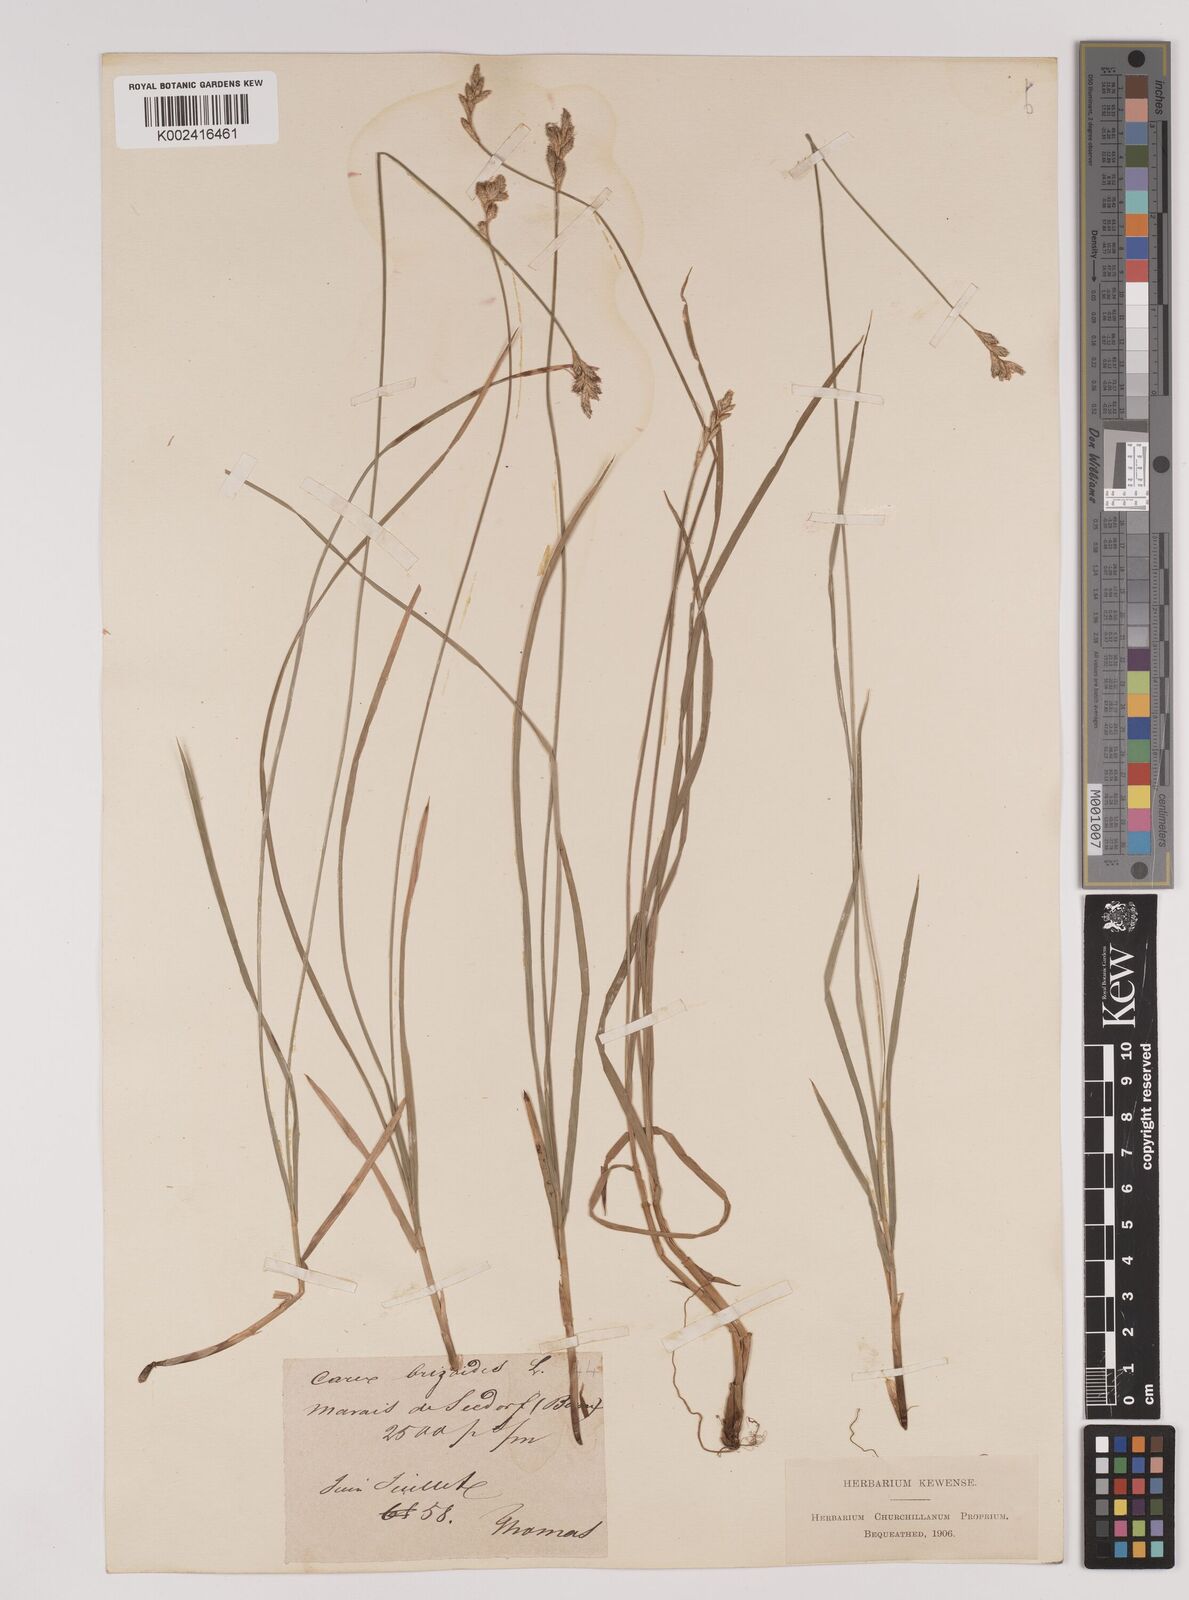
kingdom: Plantae
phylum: Tracheophyta
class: Liliopsida
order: Poales
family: Cyperaceae
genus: Carex
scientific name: Carex brizoides
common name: Quaking-grass sedge
